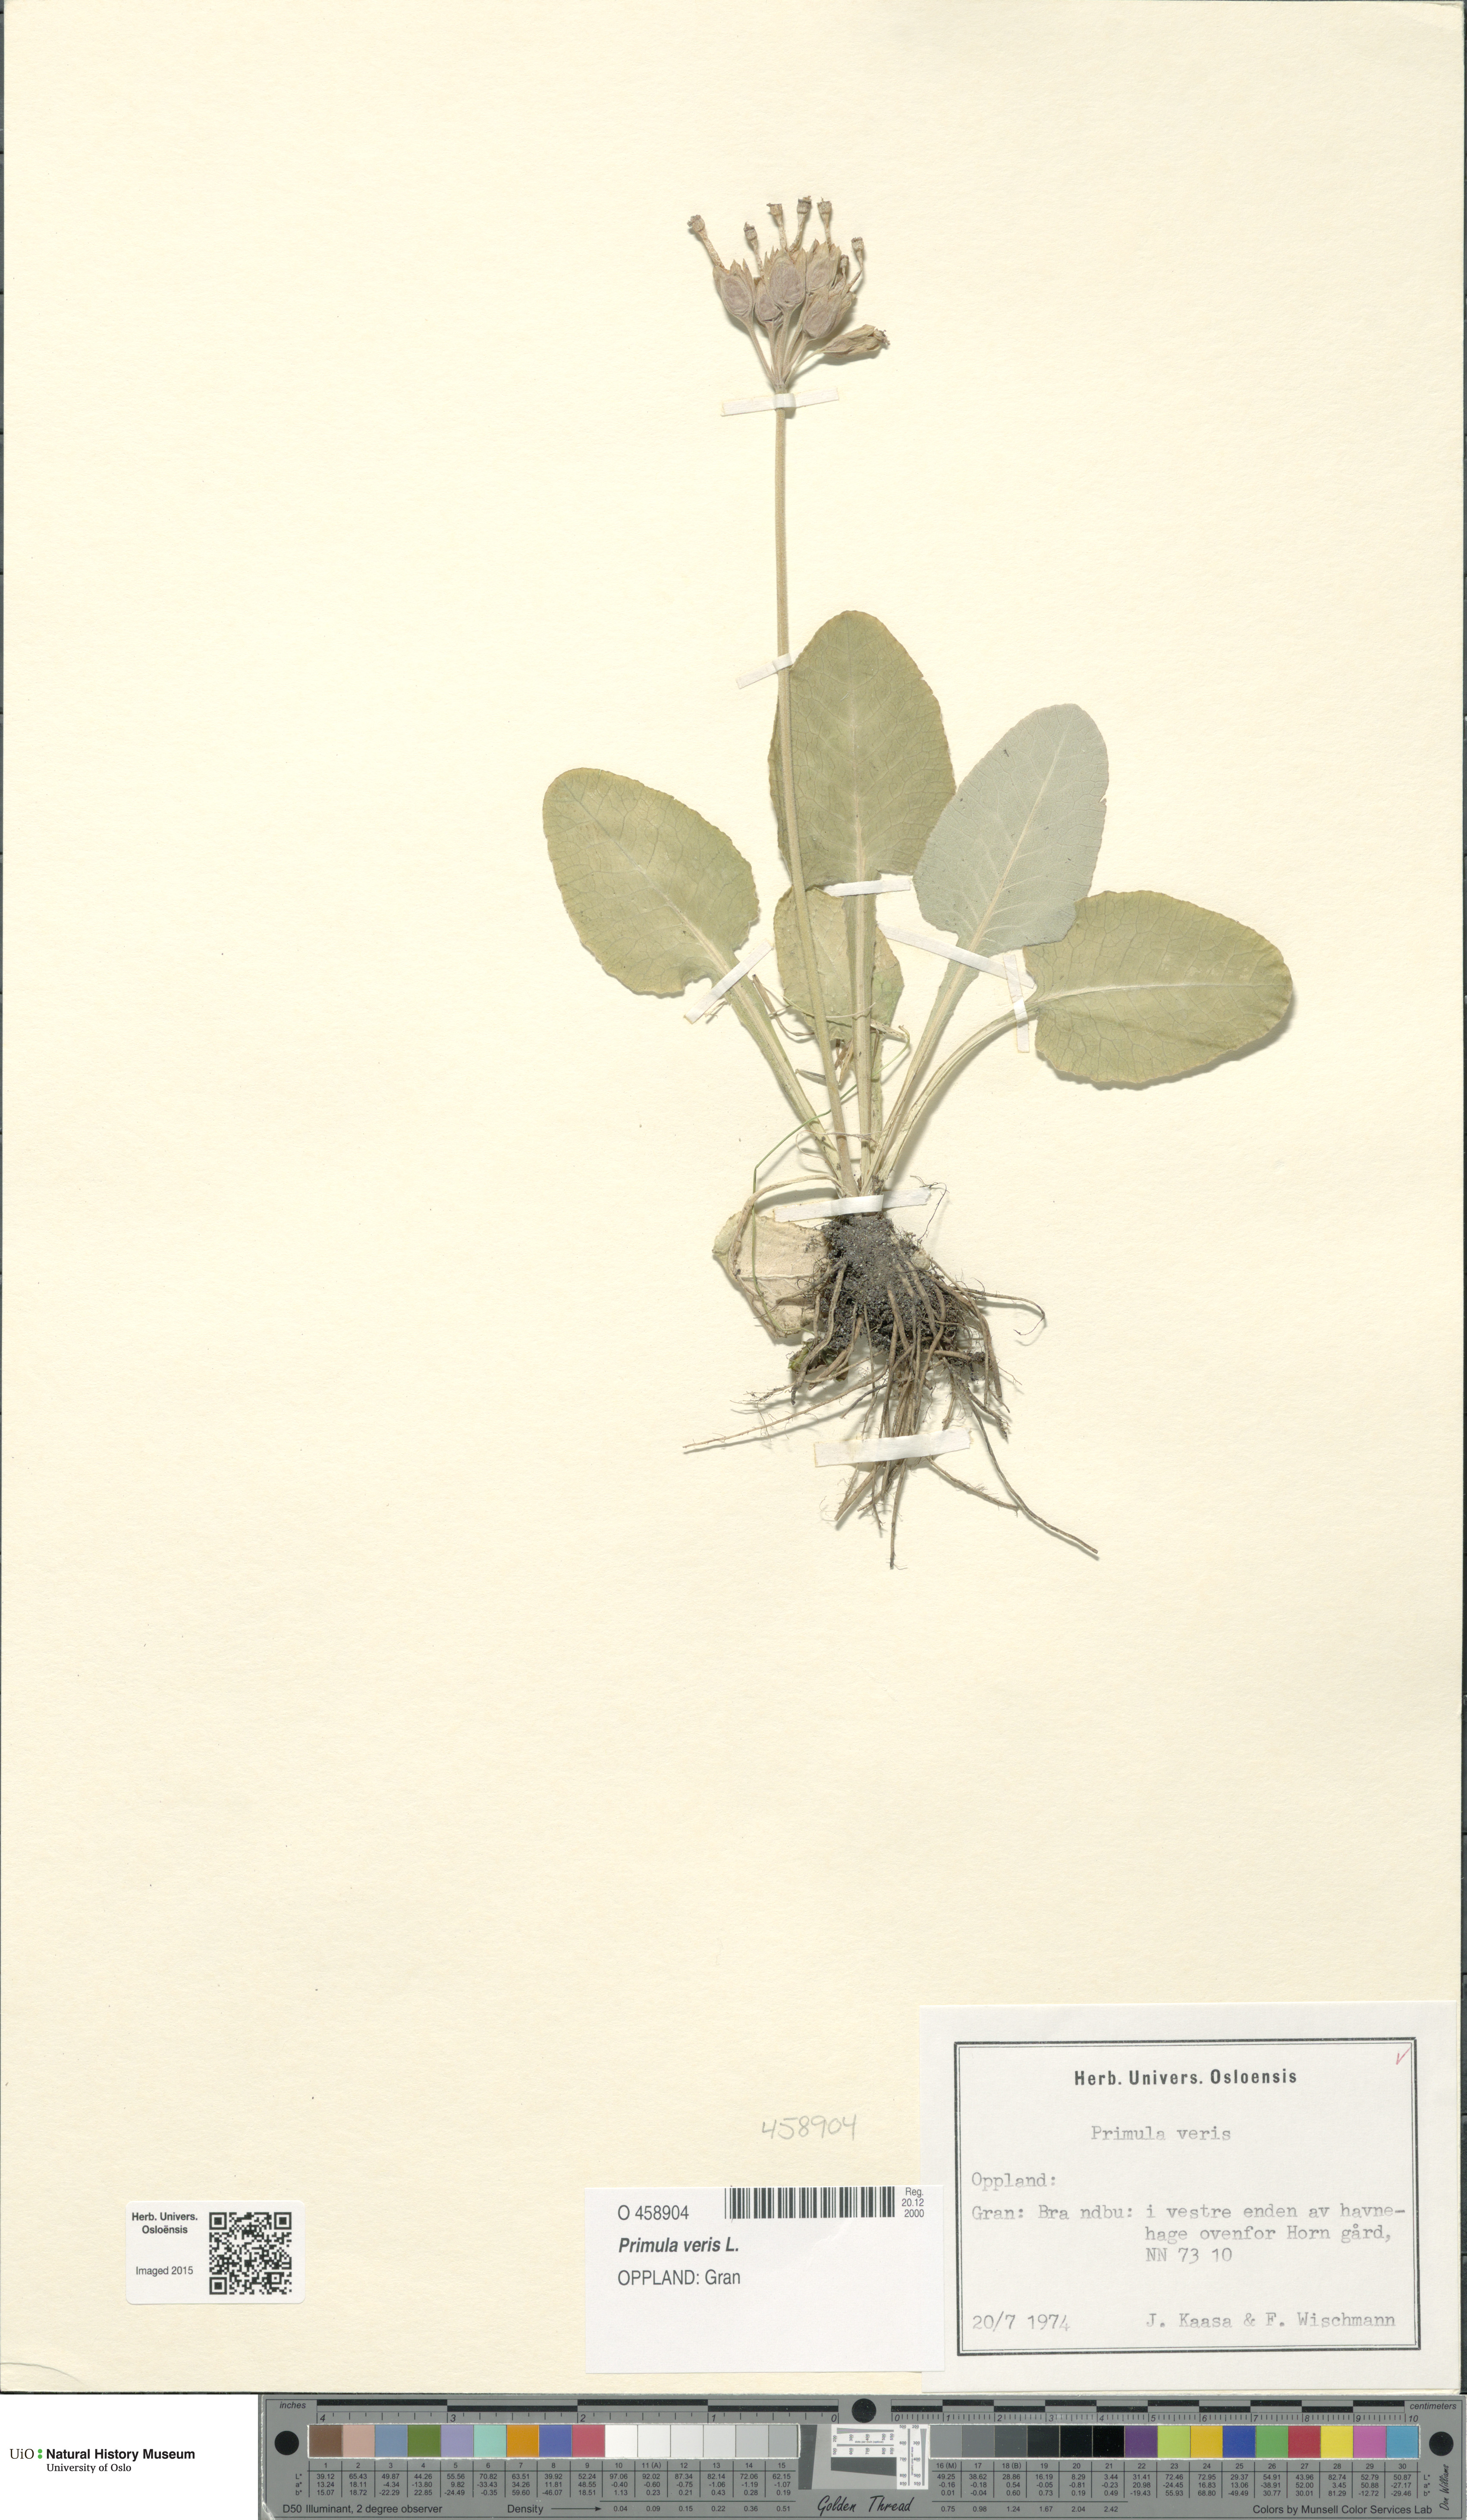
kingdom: Plantae
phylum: Tracheophyta
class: Magnoliopsida
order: Ericales
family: Primulaceae
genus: Primula
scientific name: Primula veris
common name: Cowslip
